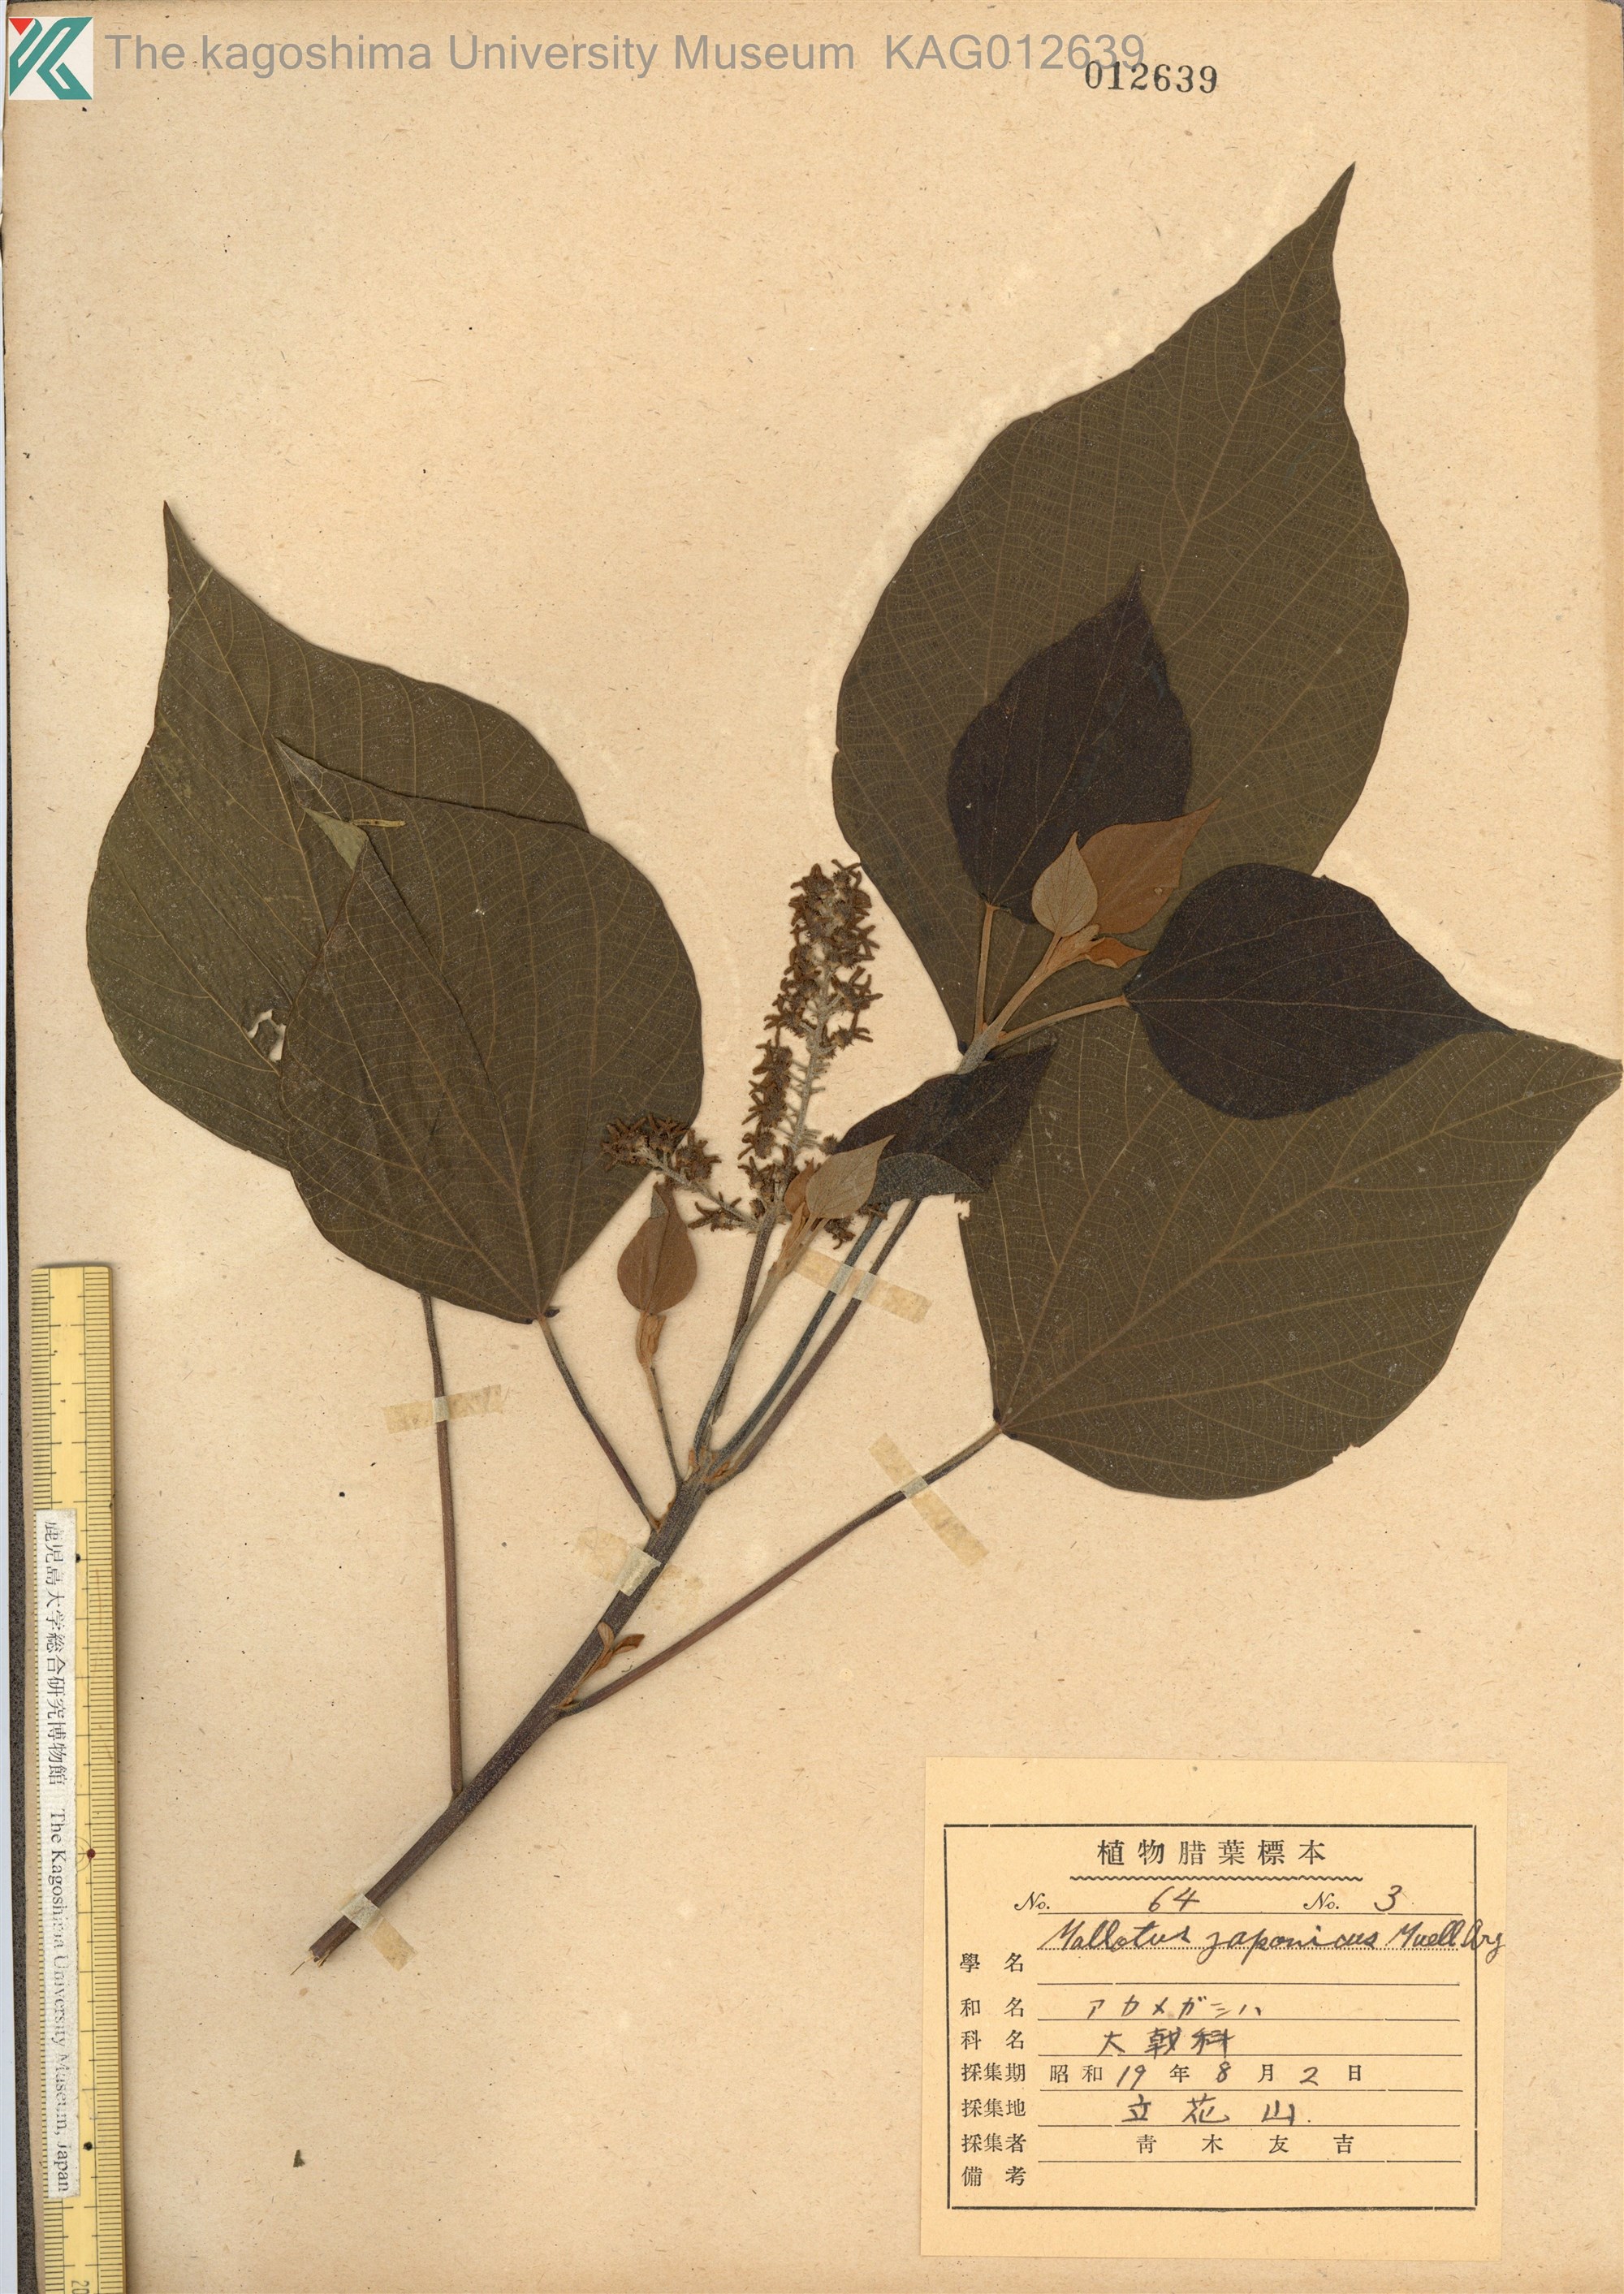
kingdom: Plantae
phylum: Tracheophyta
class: Magnoliopsida
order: Malpighiales
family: Euphorbiaceae
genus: Mallotus
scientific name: Mallotus japonicus
